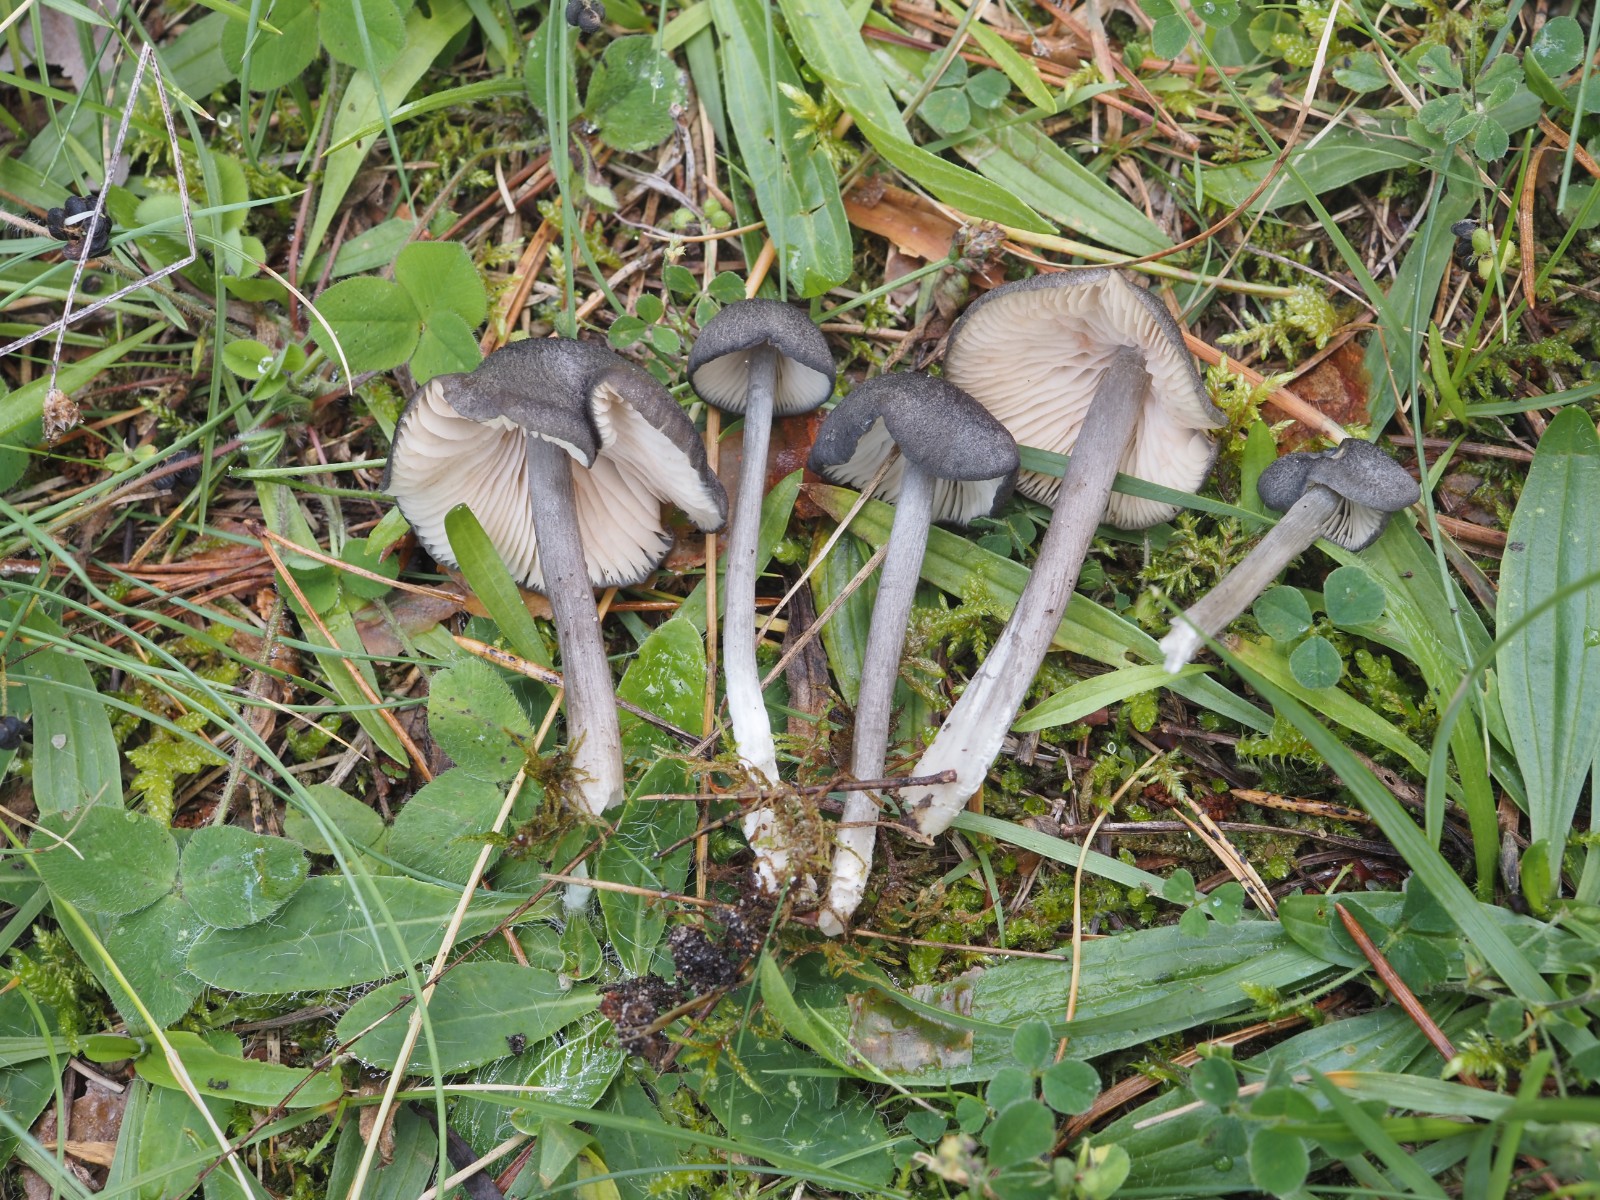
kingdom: Fungi
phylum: Basidiomycota
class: Agaricomycetes
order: Agaricales
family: Entolomataceae
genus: Entoloma
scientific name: Entoloma mougeotii
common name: violetgrå rødblad
